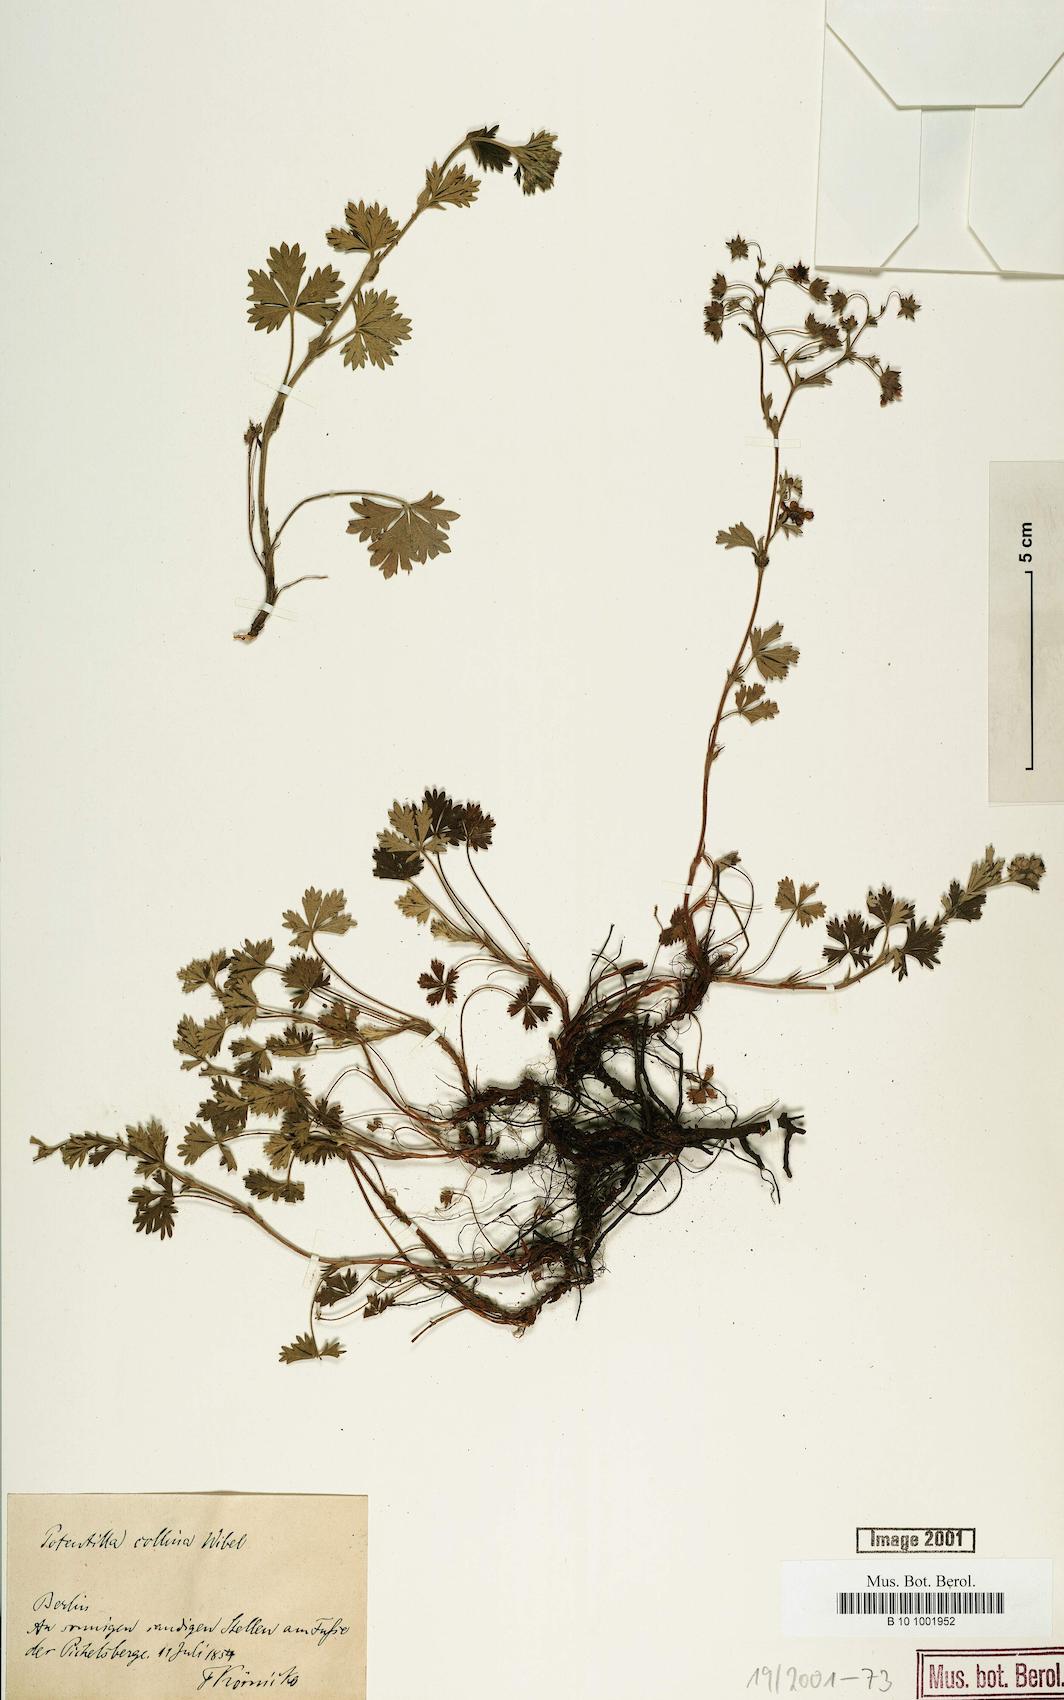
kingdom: Plantae
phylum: Tracheophyta
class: Magnoliopsida
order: Rosales
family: Rosaceae
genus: Potentilla
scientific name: Potentilla collina
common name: Palmleaf cinquefoil
